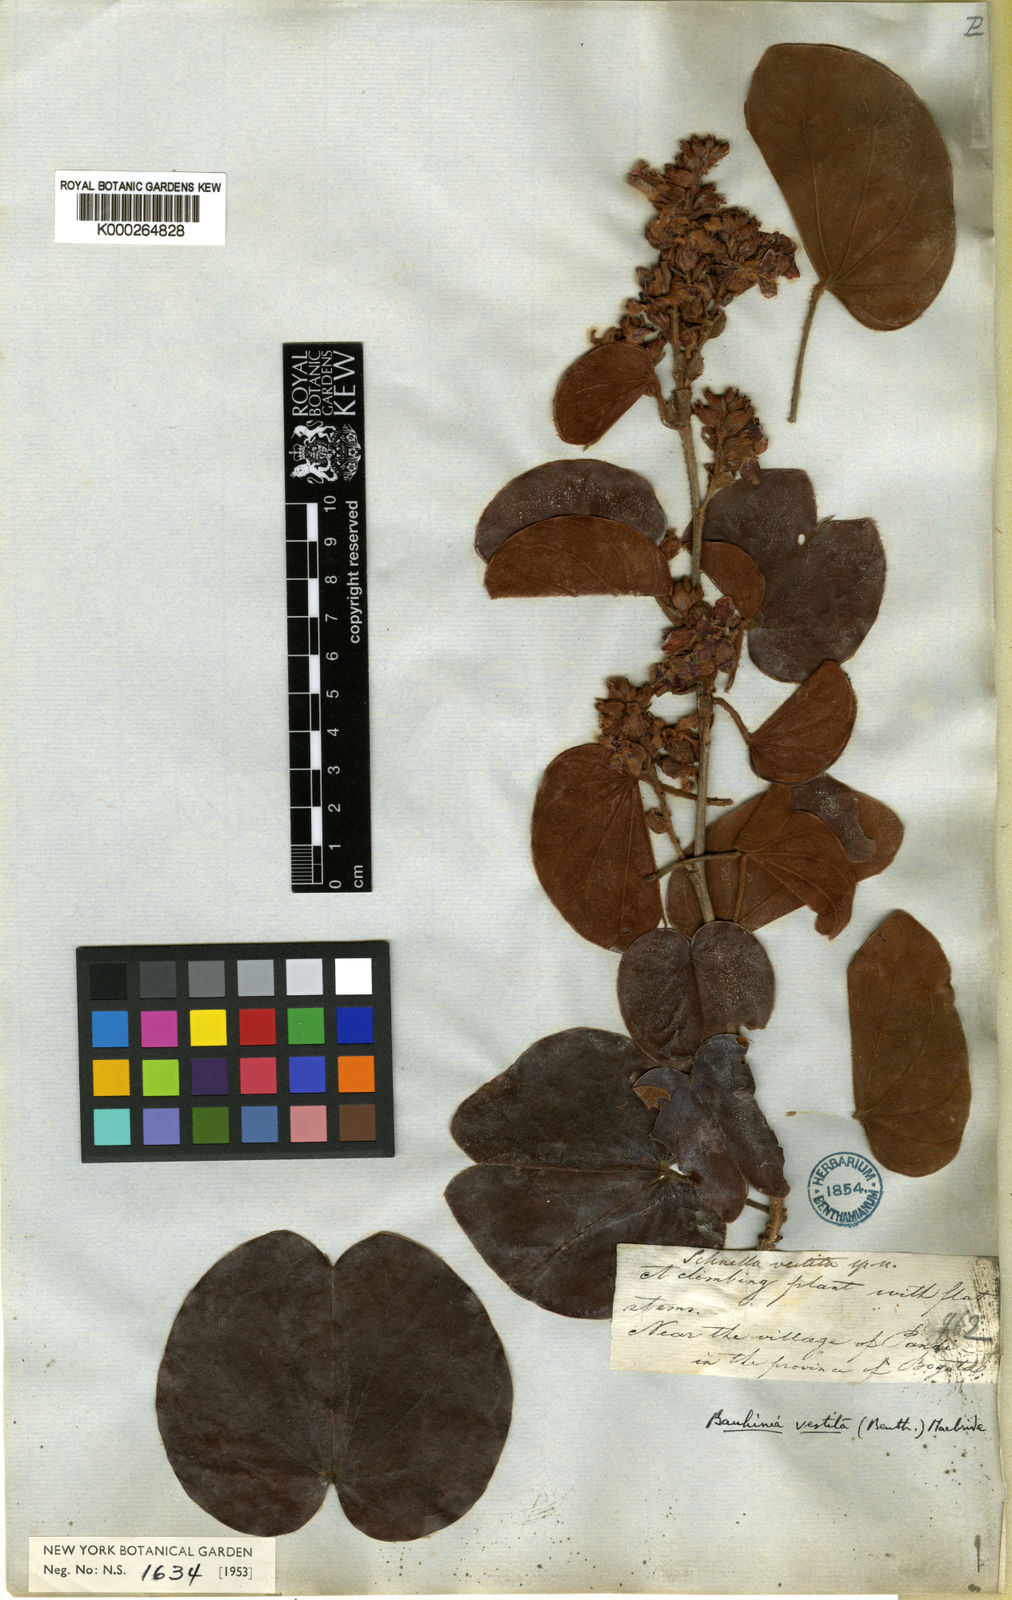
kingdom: Plantae
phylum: Tracheophyta
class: Magnoliopsida
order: Fabales
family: Fabaceae
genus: Schnella
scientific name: Schnella vestita
